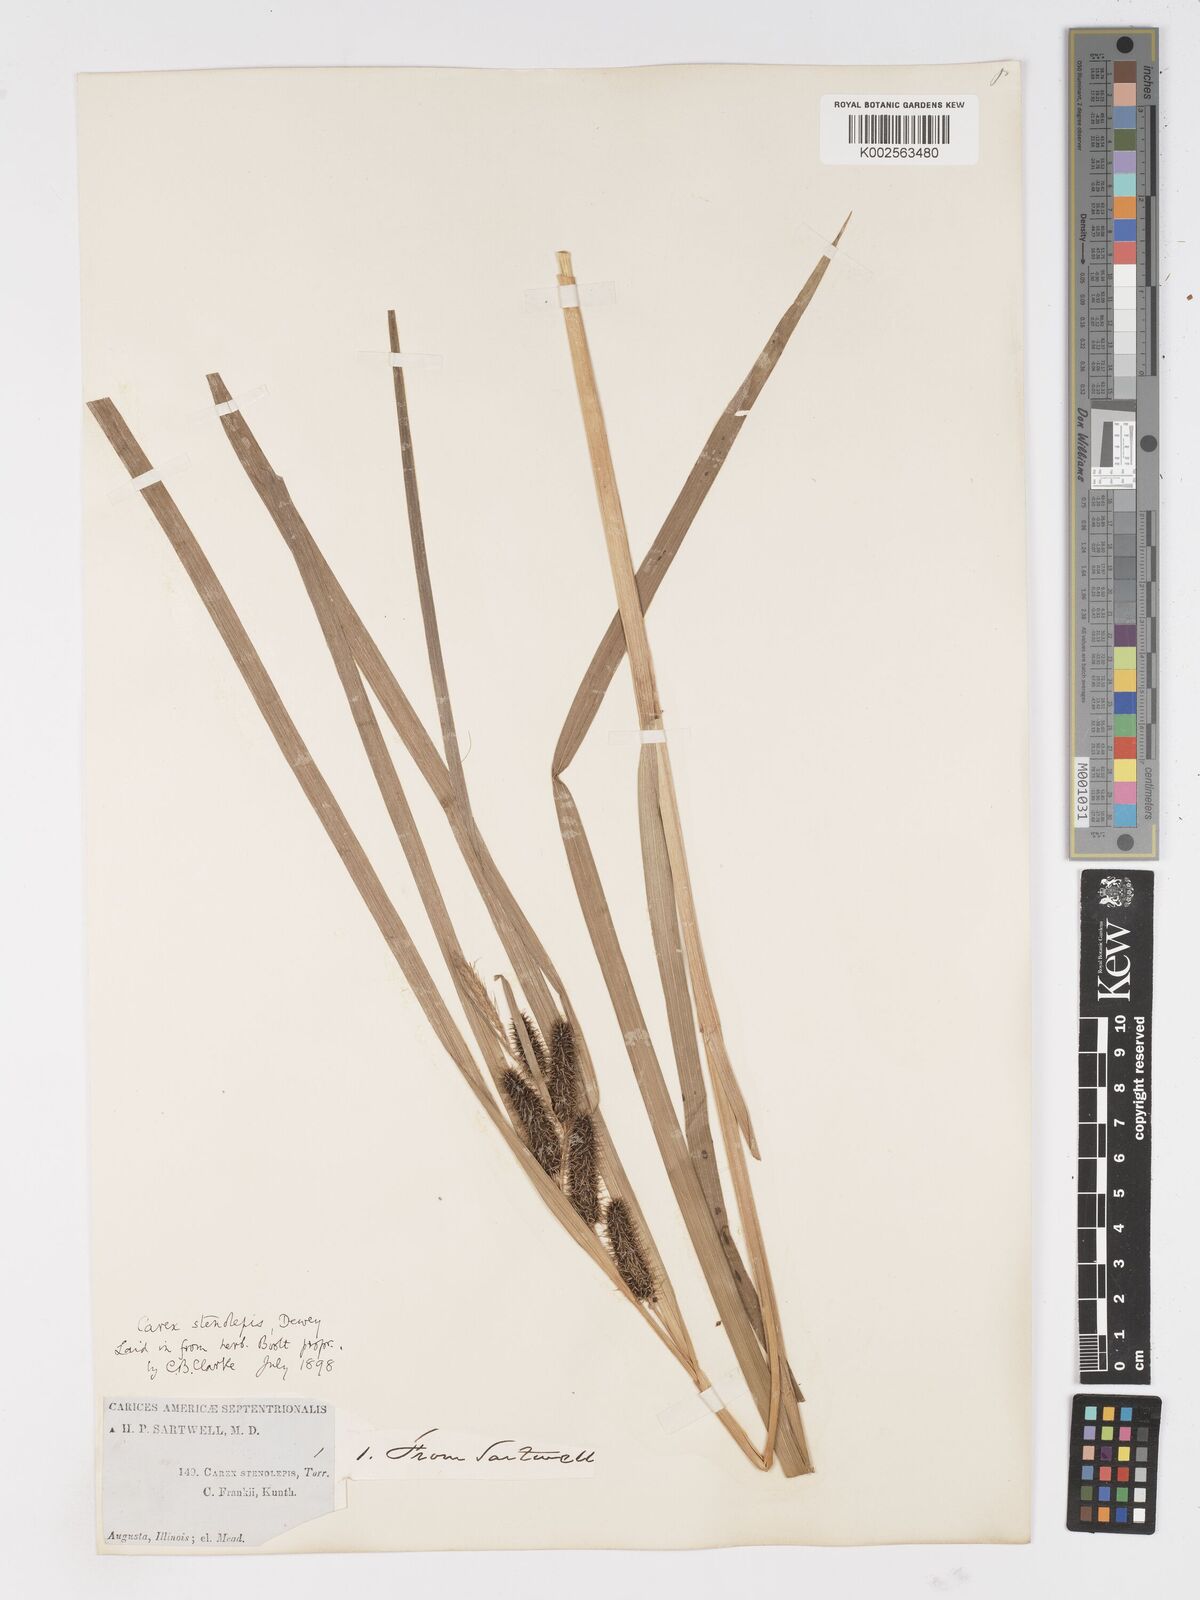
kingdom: Plantae
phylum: Tracheophyta
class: Liliopsida
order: Poales
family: Cyperaceae
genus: Carex
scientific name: Carex frankii
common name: Frank's sedge
